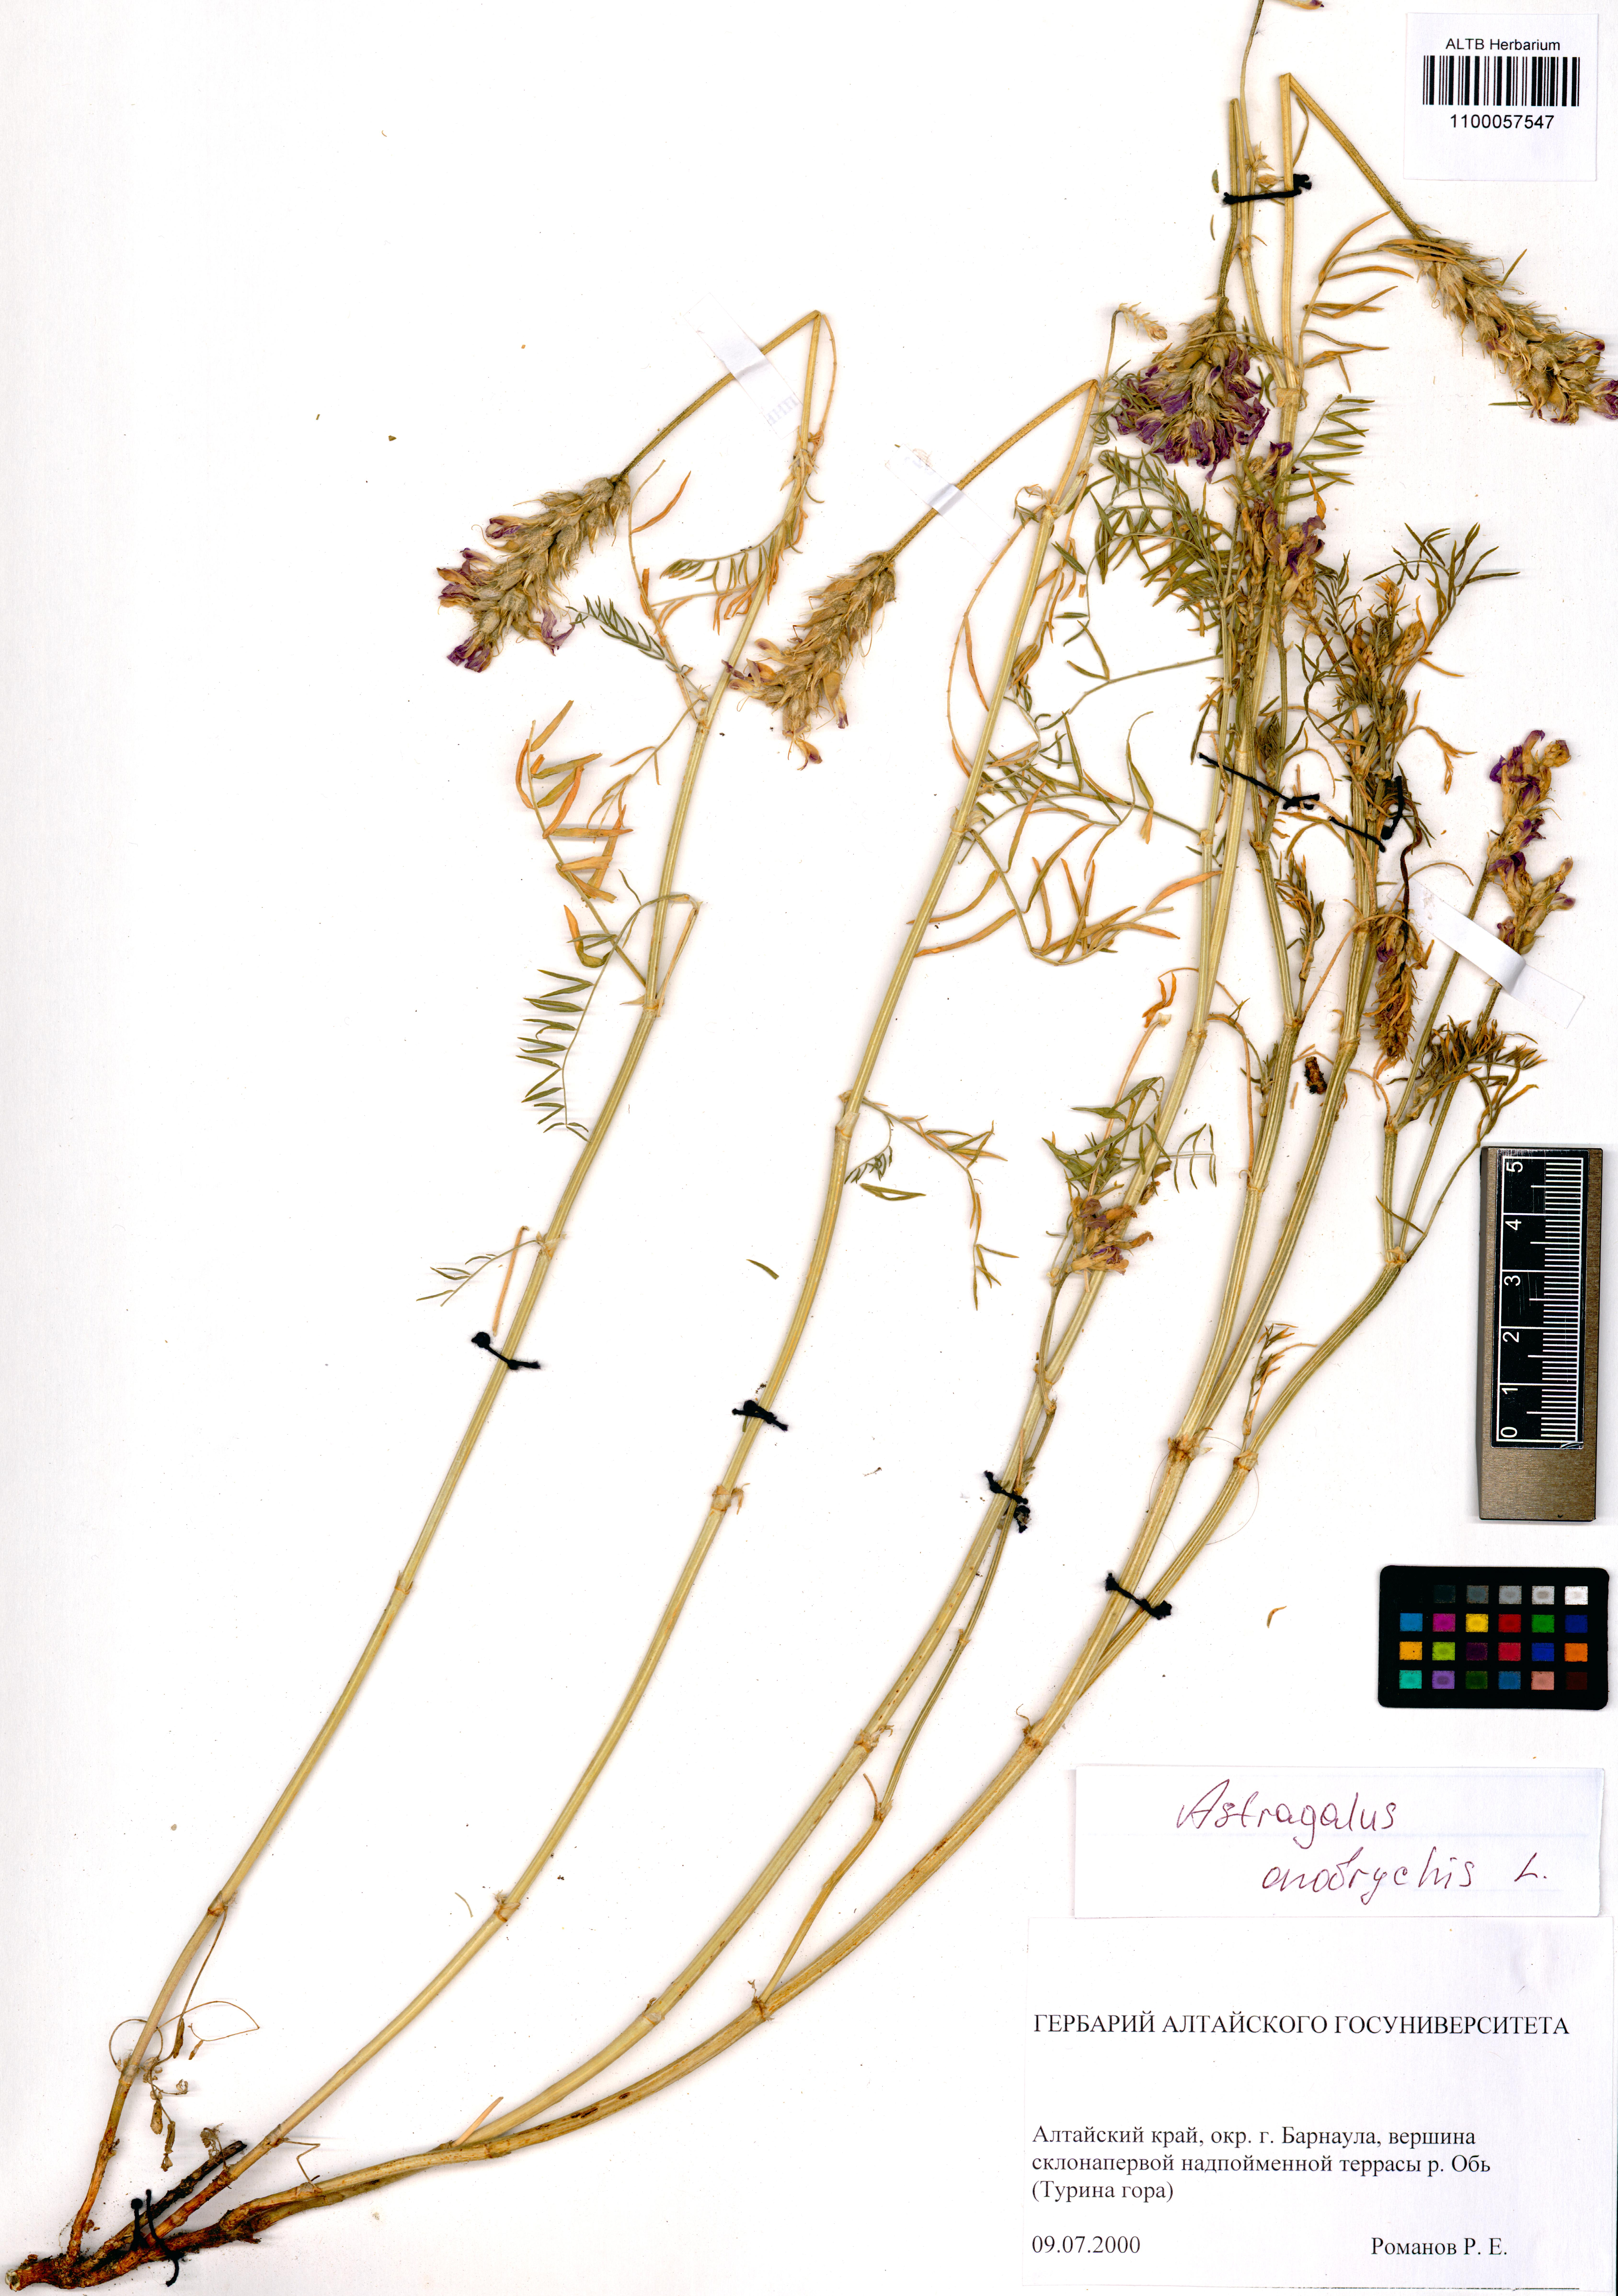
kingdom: Plantae
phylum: Tracheophyta
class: Magnoliopsida
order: Fabales
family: Fabaceae
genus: Astragalus
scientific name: Astragalus onobrychis
